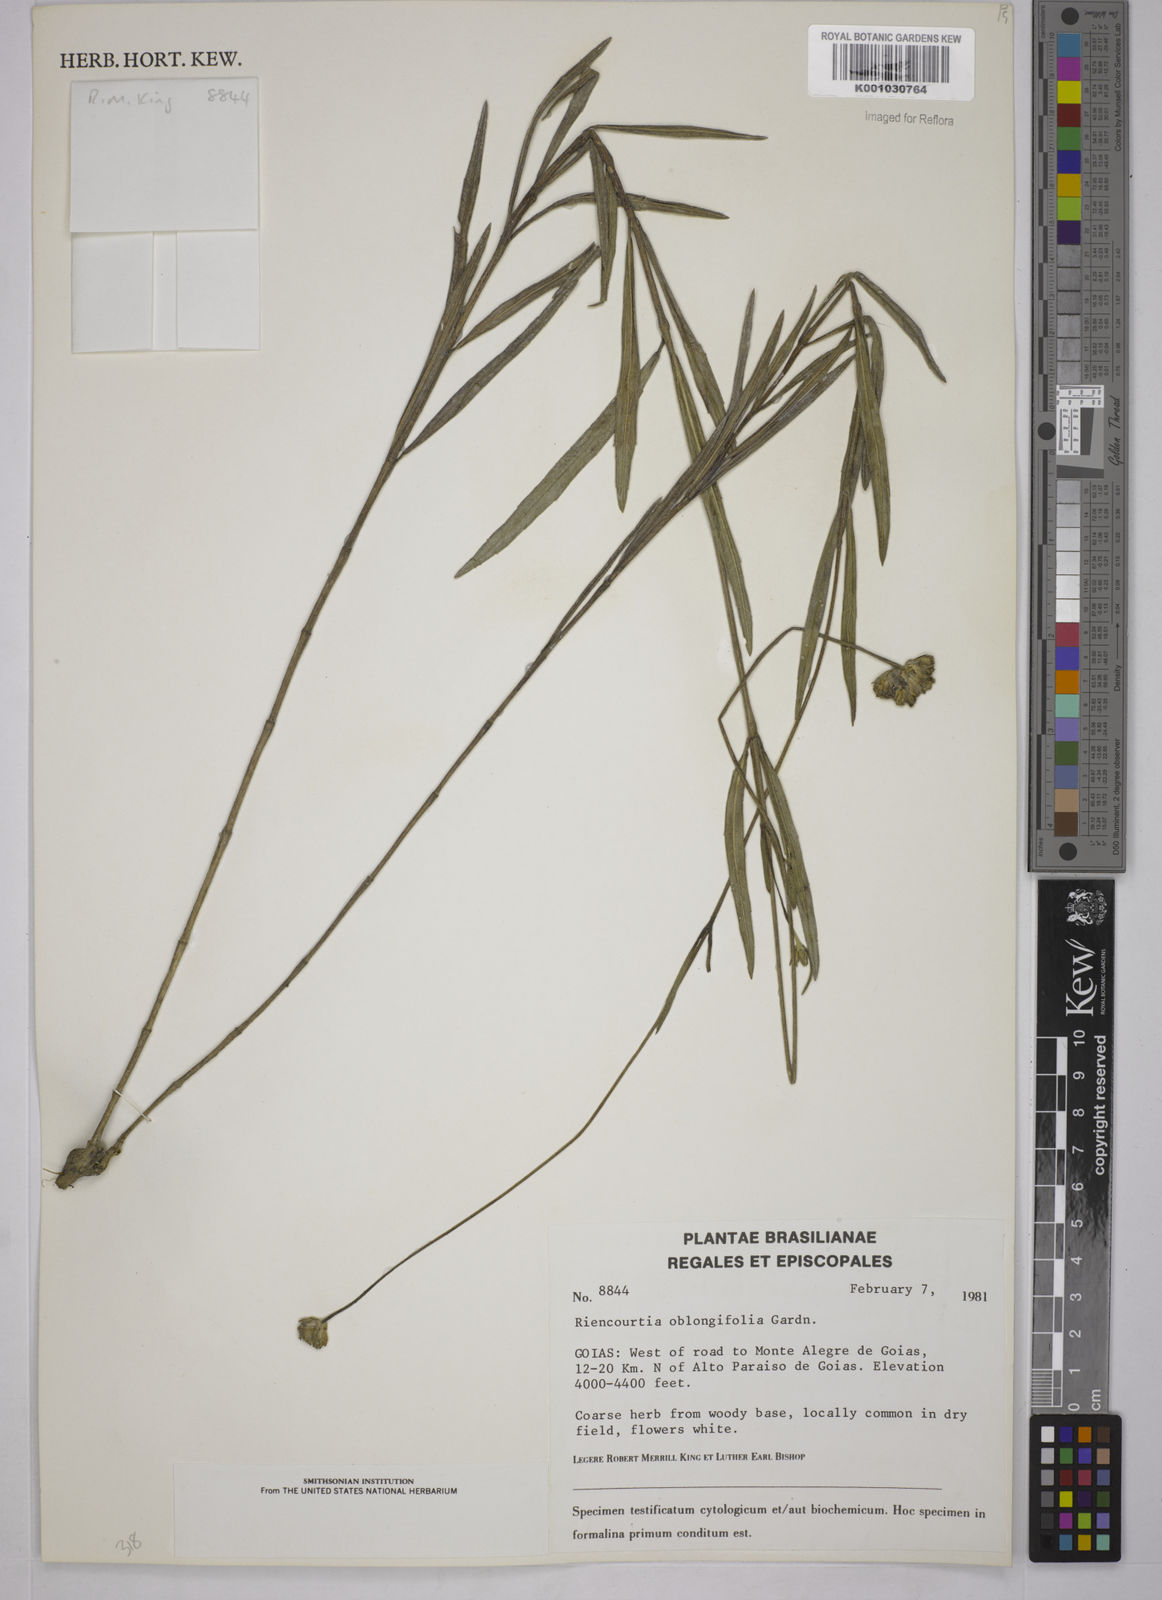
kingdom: Plantae
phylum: Tracheophyta
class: Magnoliopsida
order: Asterales
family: Asteraceae
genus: Riencourtia
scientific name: Riencourtia oblongifolia
